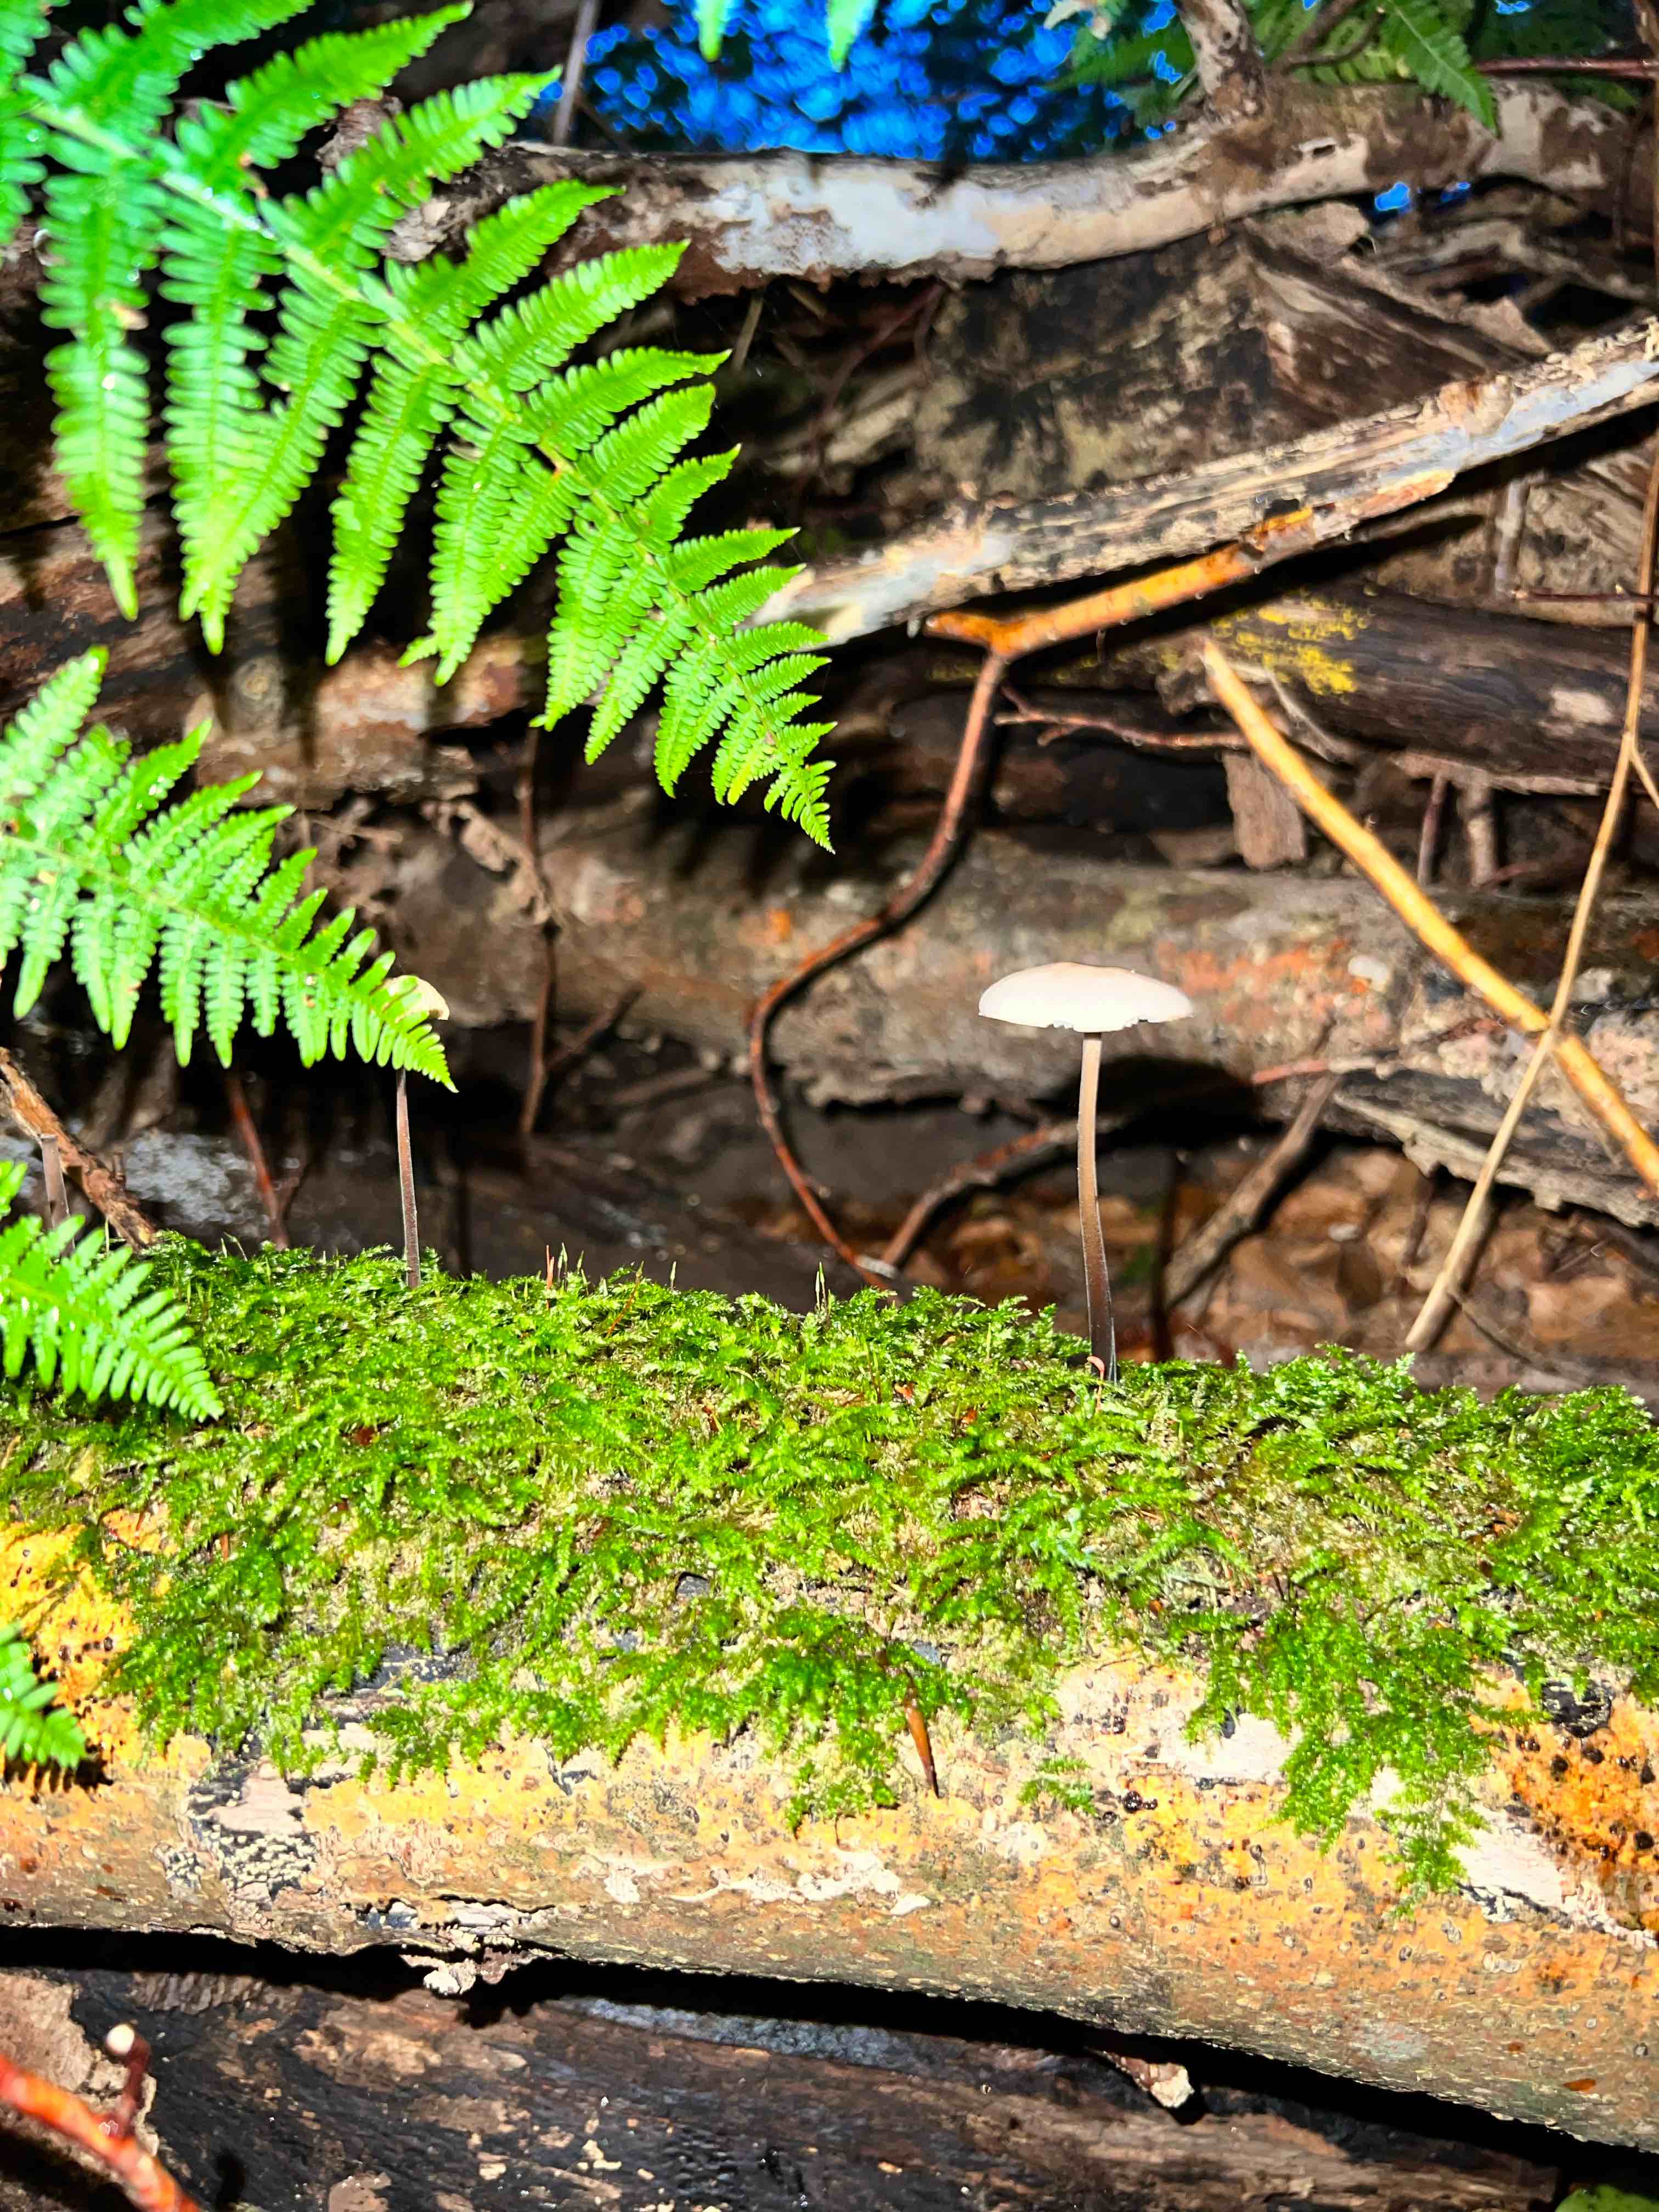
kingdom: Fungi
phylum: Basidiomycota
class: Agaricomycetes
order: Agaricales
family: Omphalotaceae
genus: Mycetinis
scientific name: Mycetinis alliaceus
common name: stor løghat
